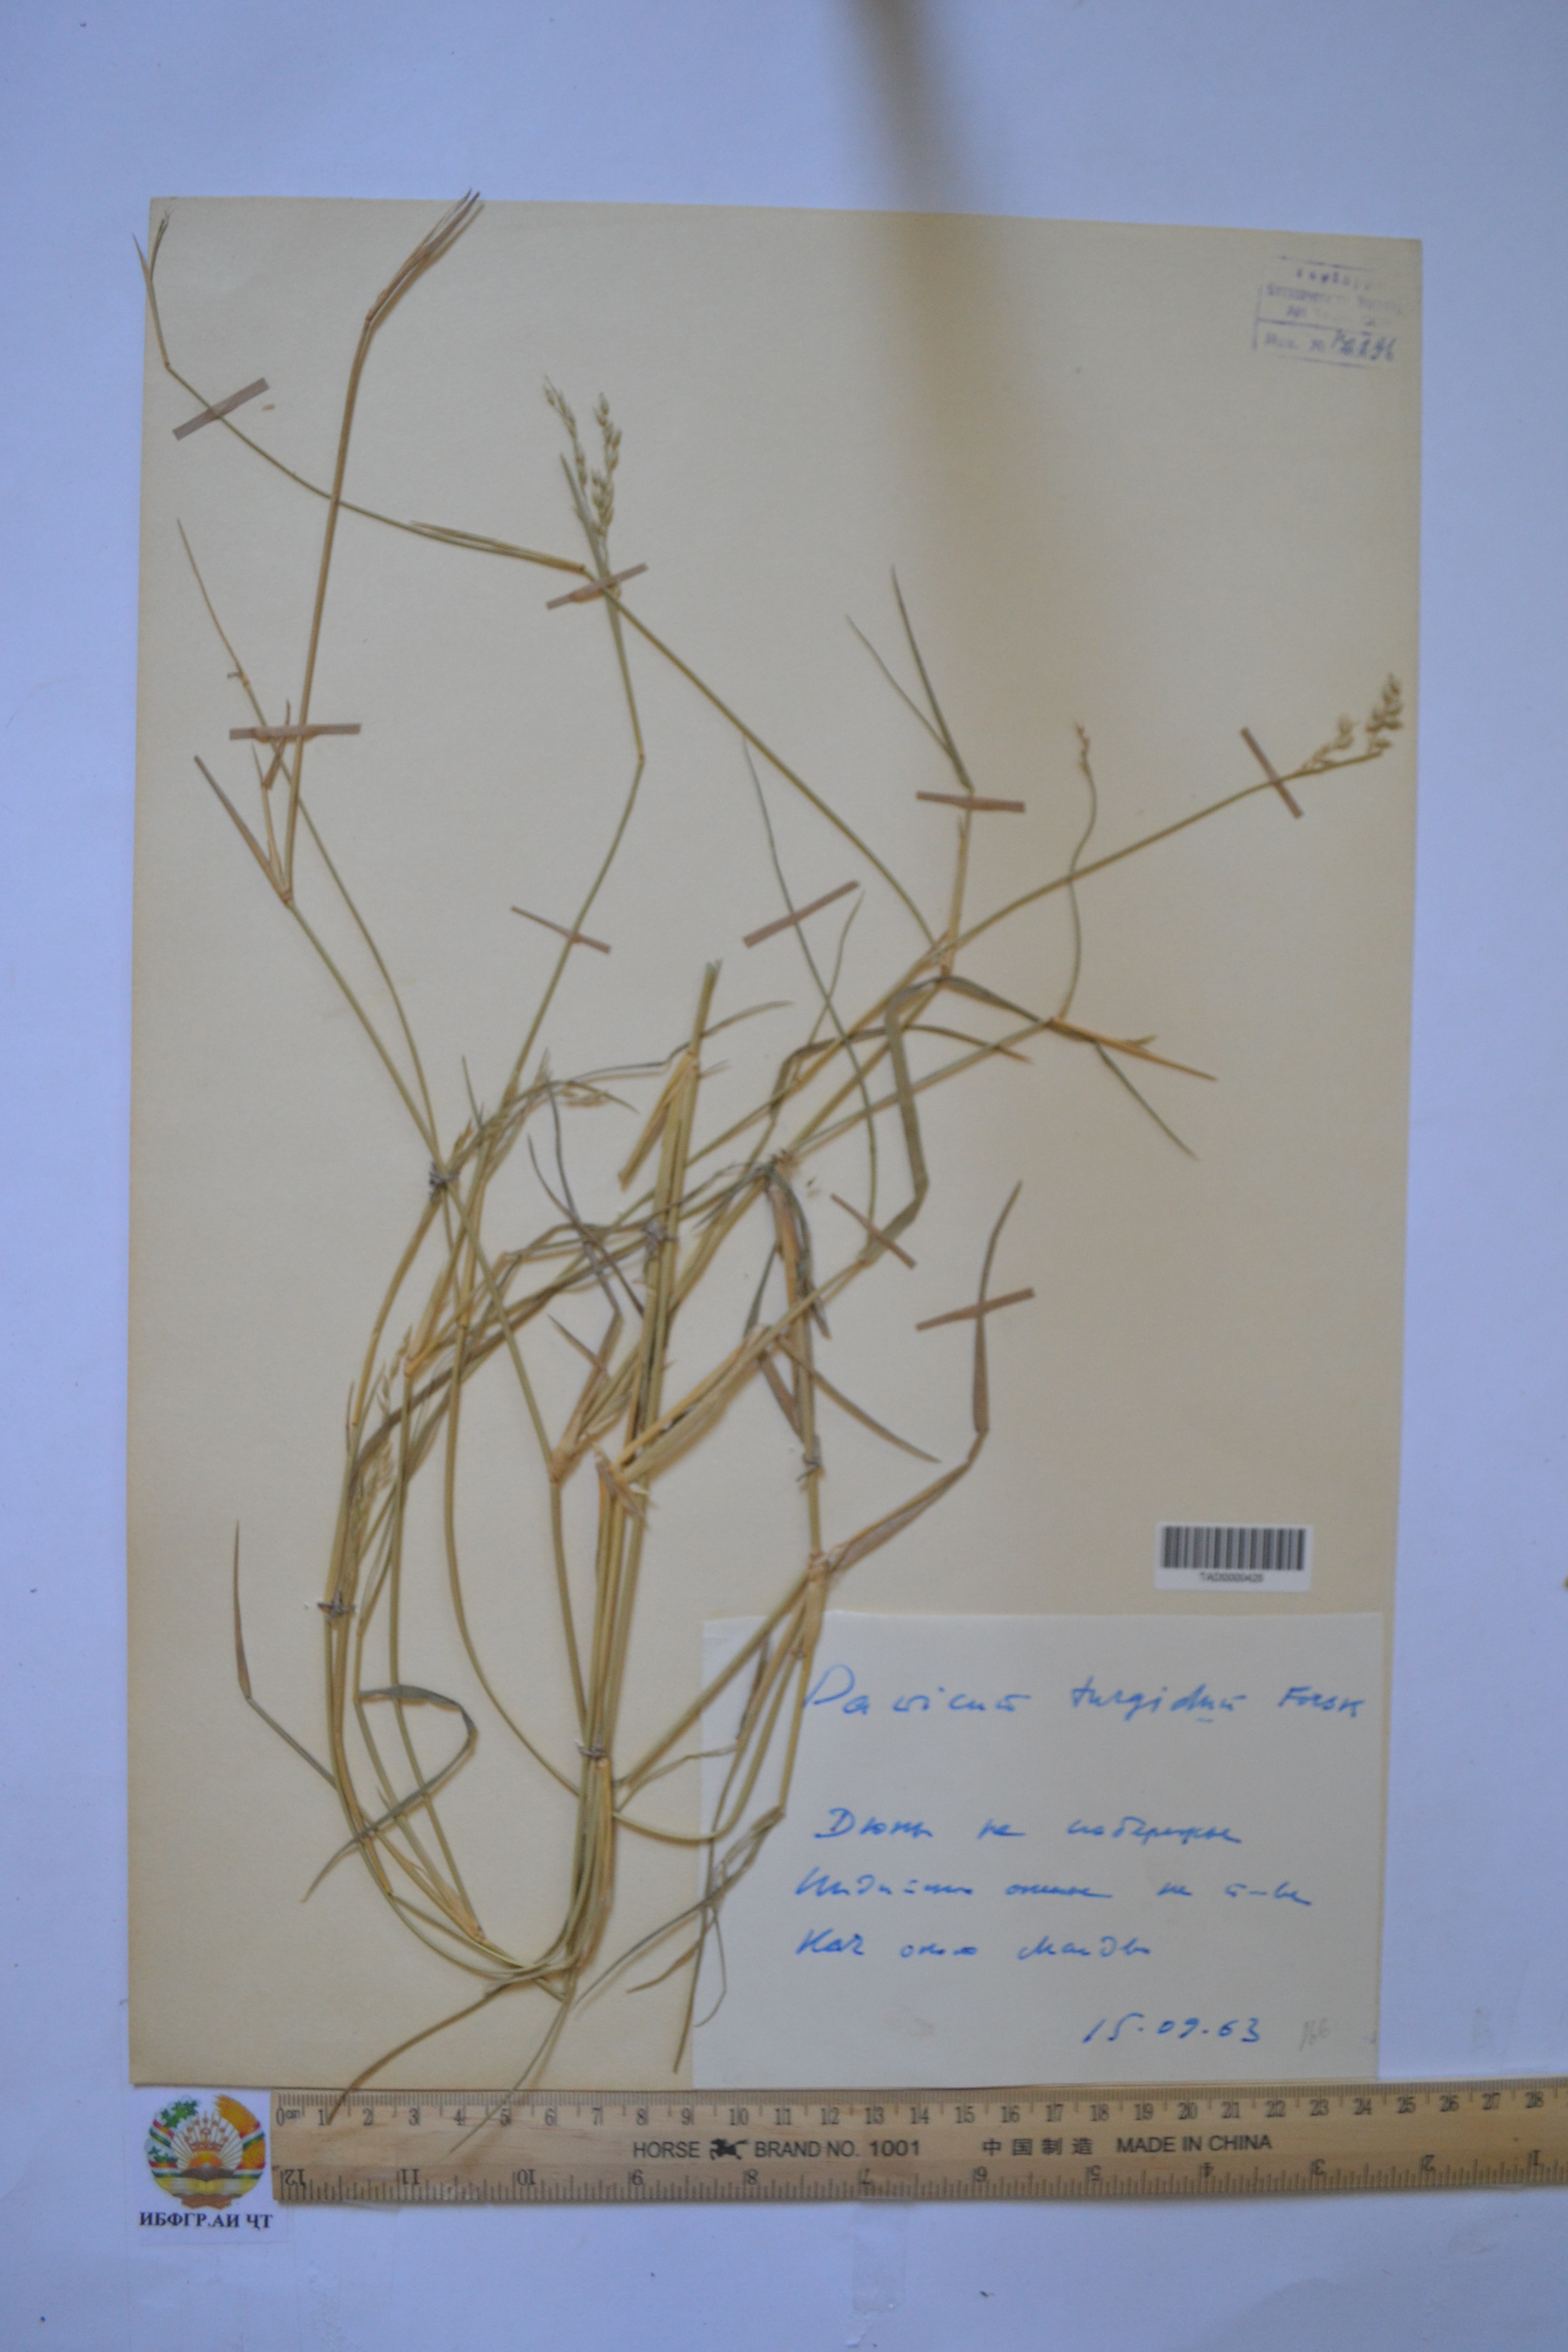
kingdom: Plantae
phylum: Tracheophyta
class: Liliopsida
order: Poales
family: Poaceae
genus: Panicum
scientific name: Panicum turgidum
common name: Desert grass
